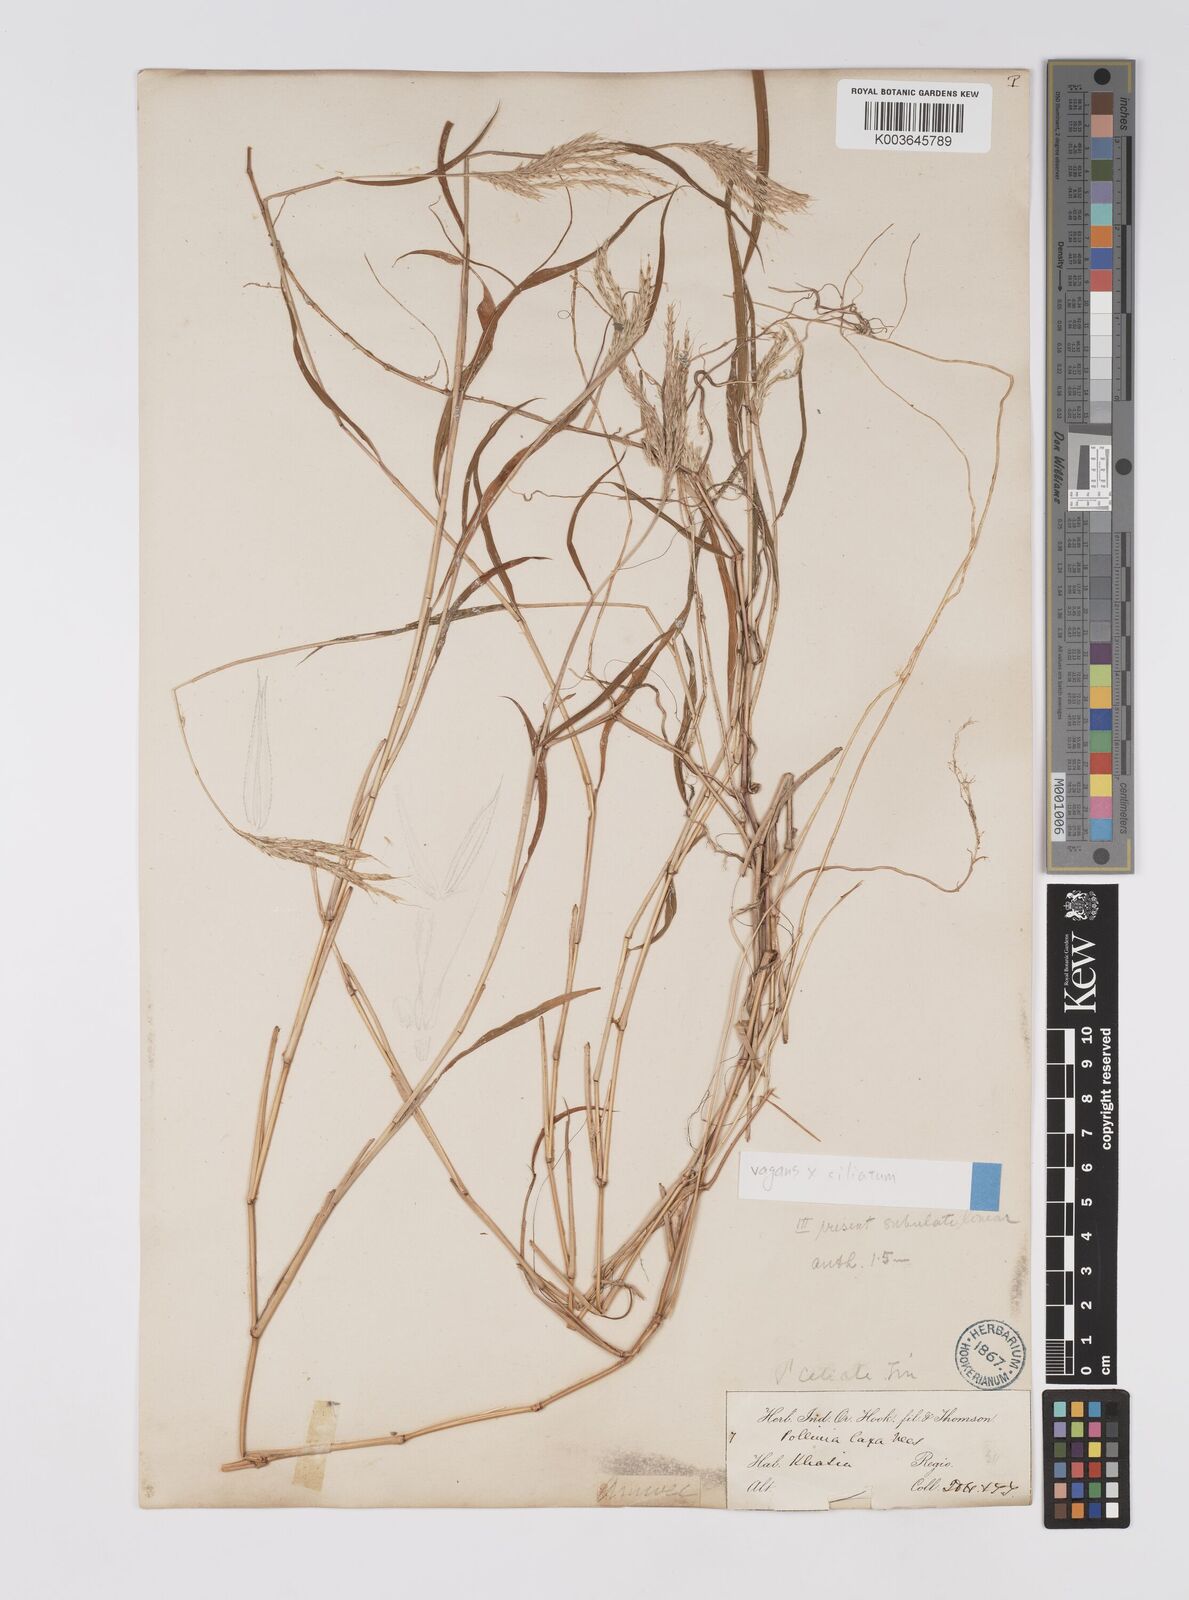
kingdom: Plantae
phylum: Tracheophyta
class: Liliopsida
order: Poales
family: Poaceae
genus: Microstegium
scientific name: Microstegium fasciculatum
